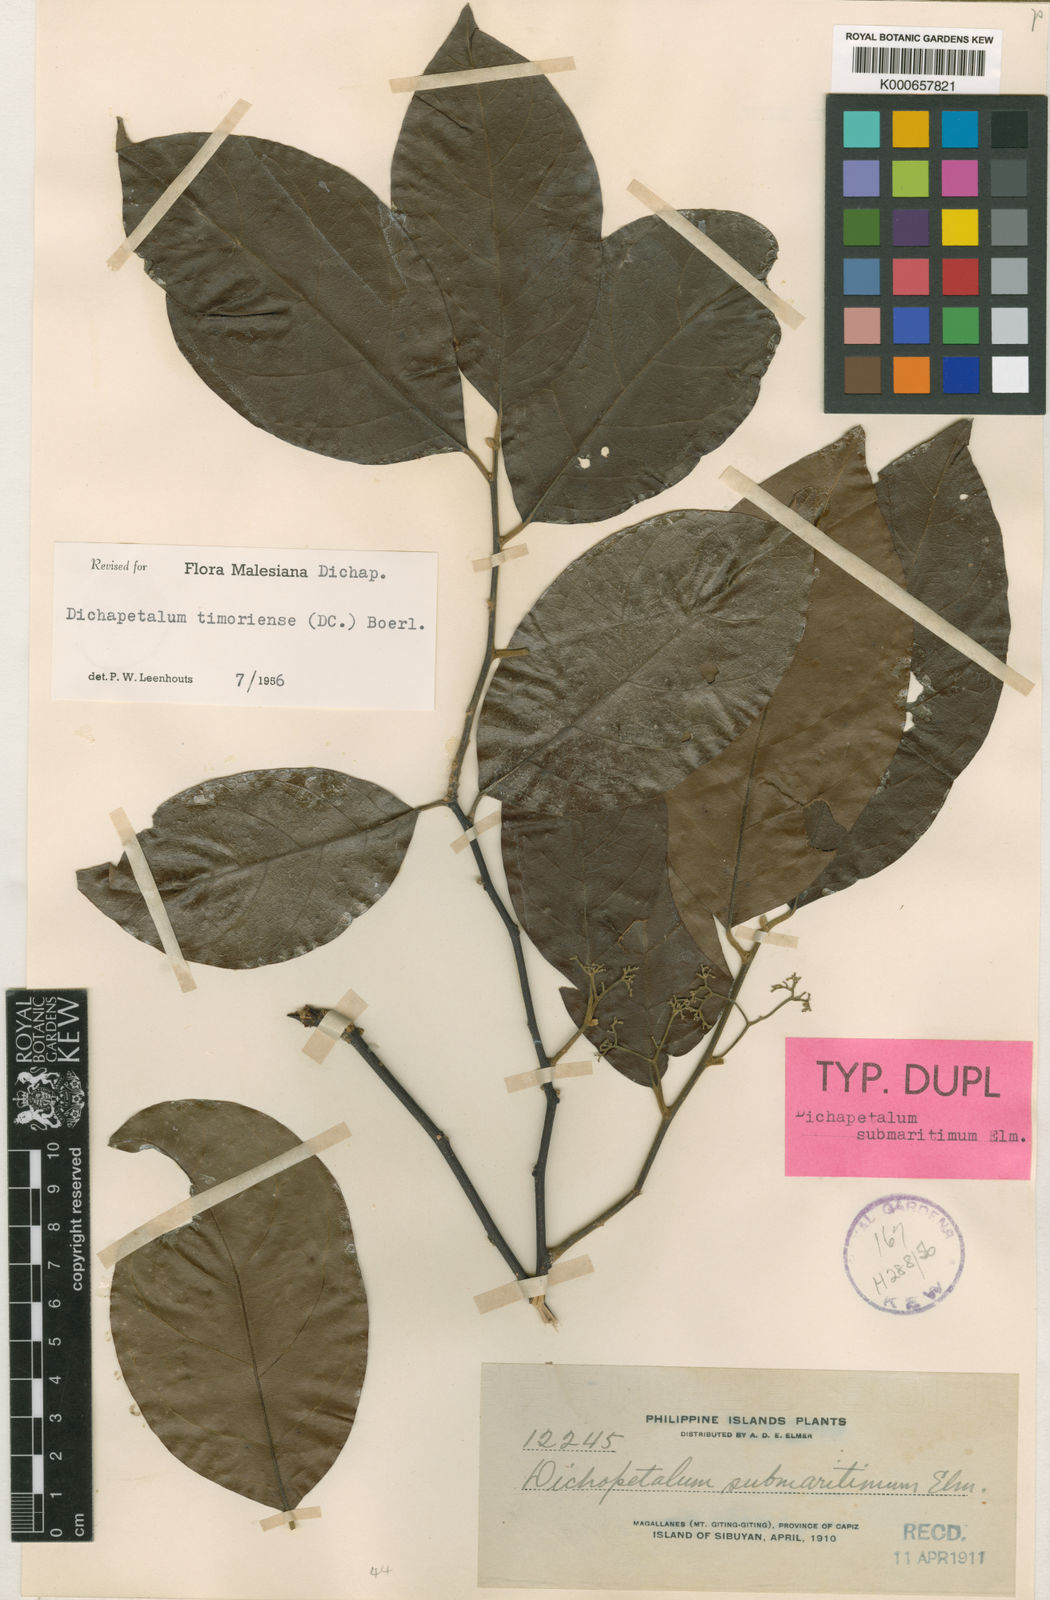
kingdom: Plantae
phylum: Tracheophyta
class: Magnoliopsida
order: Malpighiales
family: Dichapetalaceae
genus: Dichapetalum
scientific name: Dichapetalum timoriense
